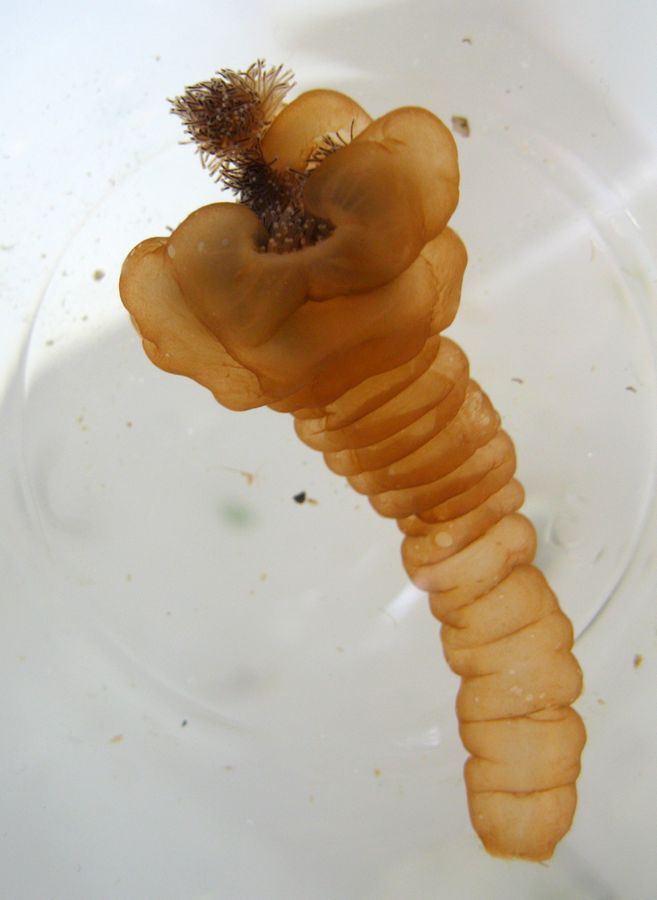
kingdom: Animalia
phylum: Cnidaria
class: Staurozoa
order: Stauromedusae
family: Lucernariidae
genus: Lucernaria
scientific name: Lucernaria quadricornis
